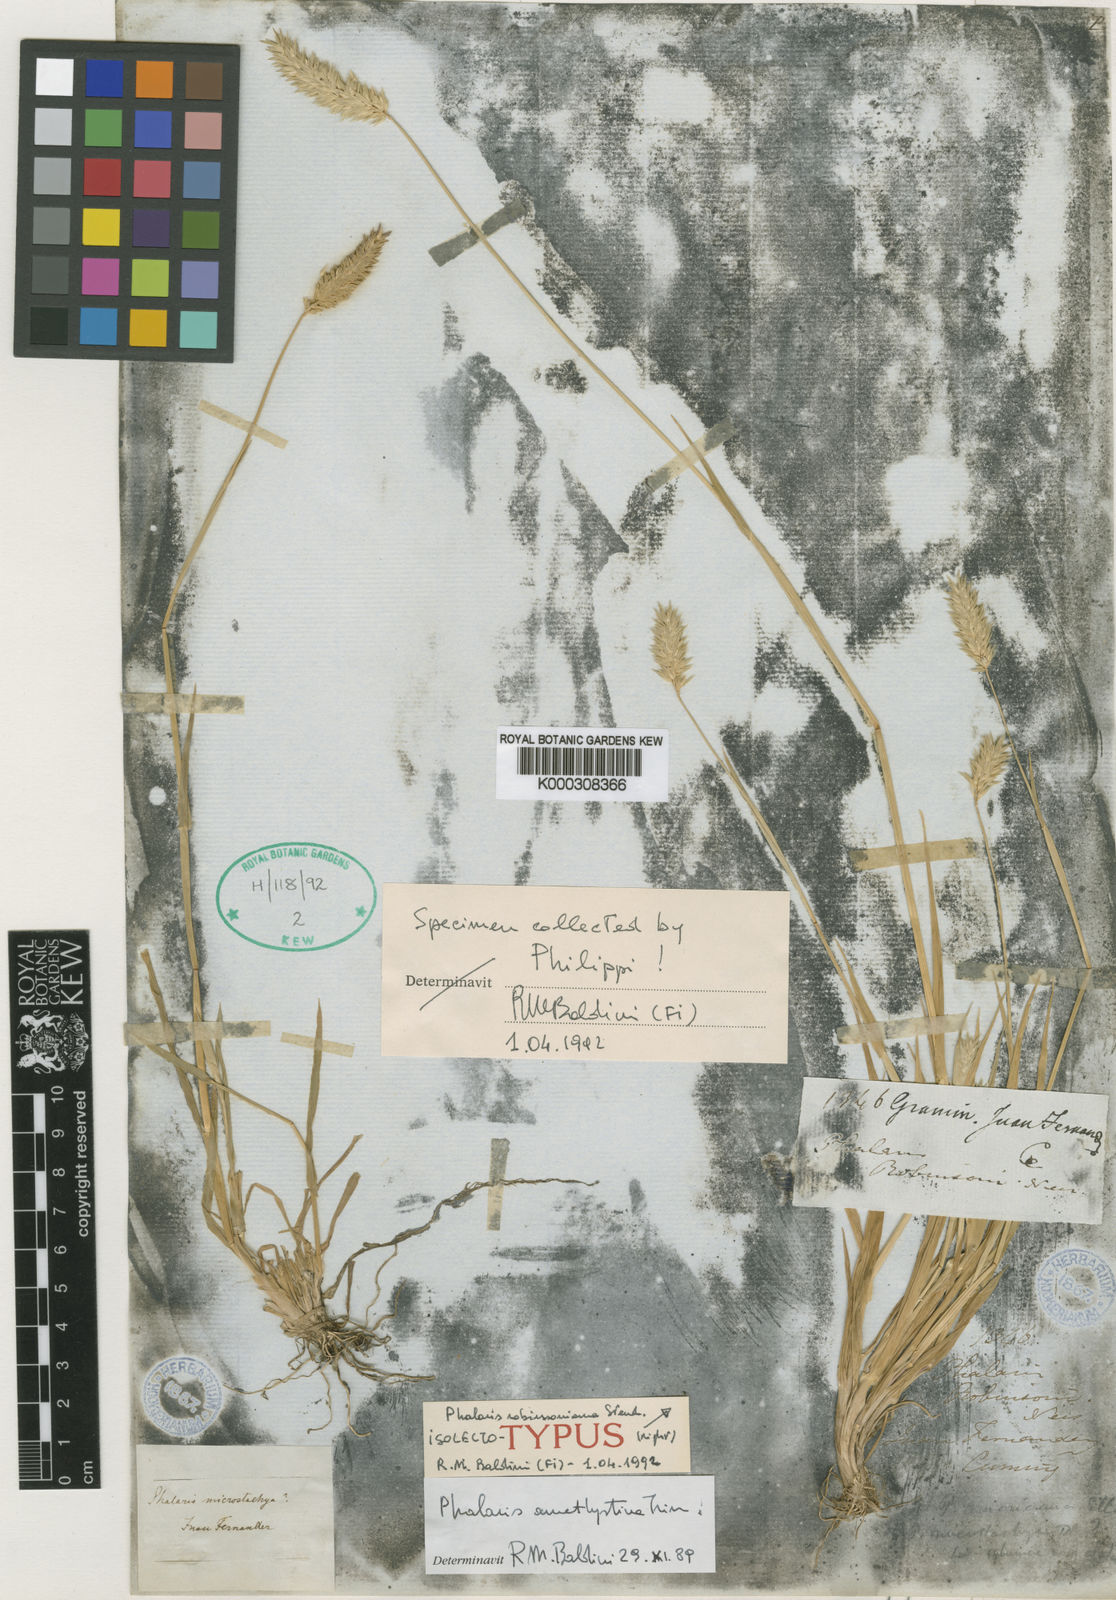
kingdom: Plantae
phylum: Tracheophyta
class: Liliopsida
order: Poales
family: Poaceae
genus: Phalaris
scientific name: Phalaris amethystina
